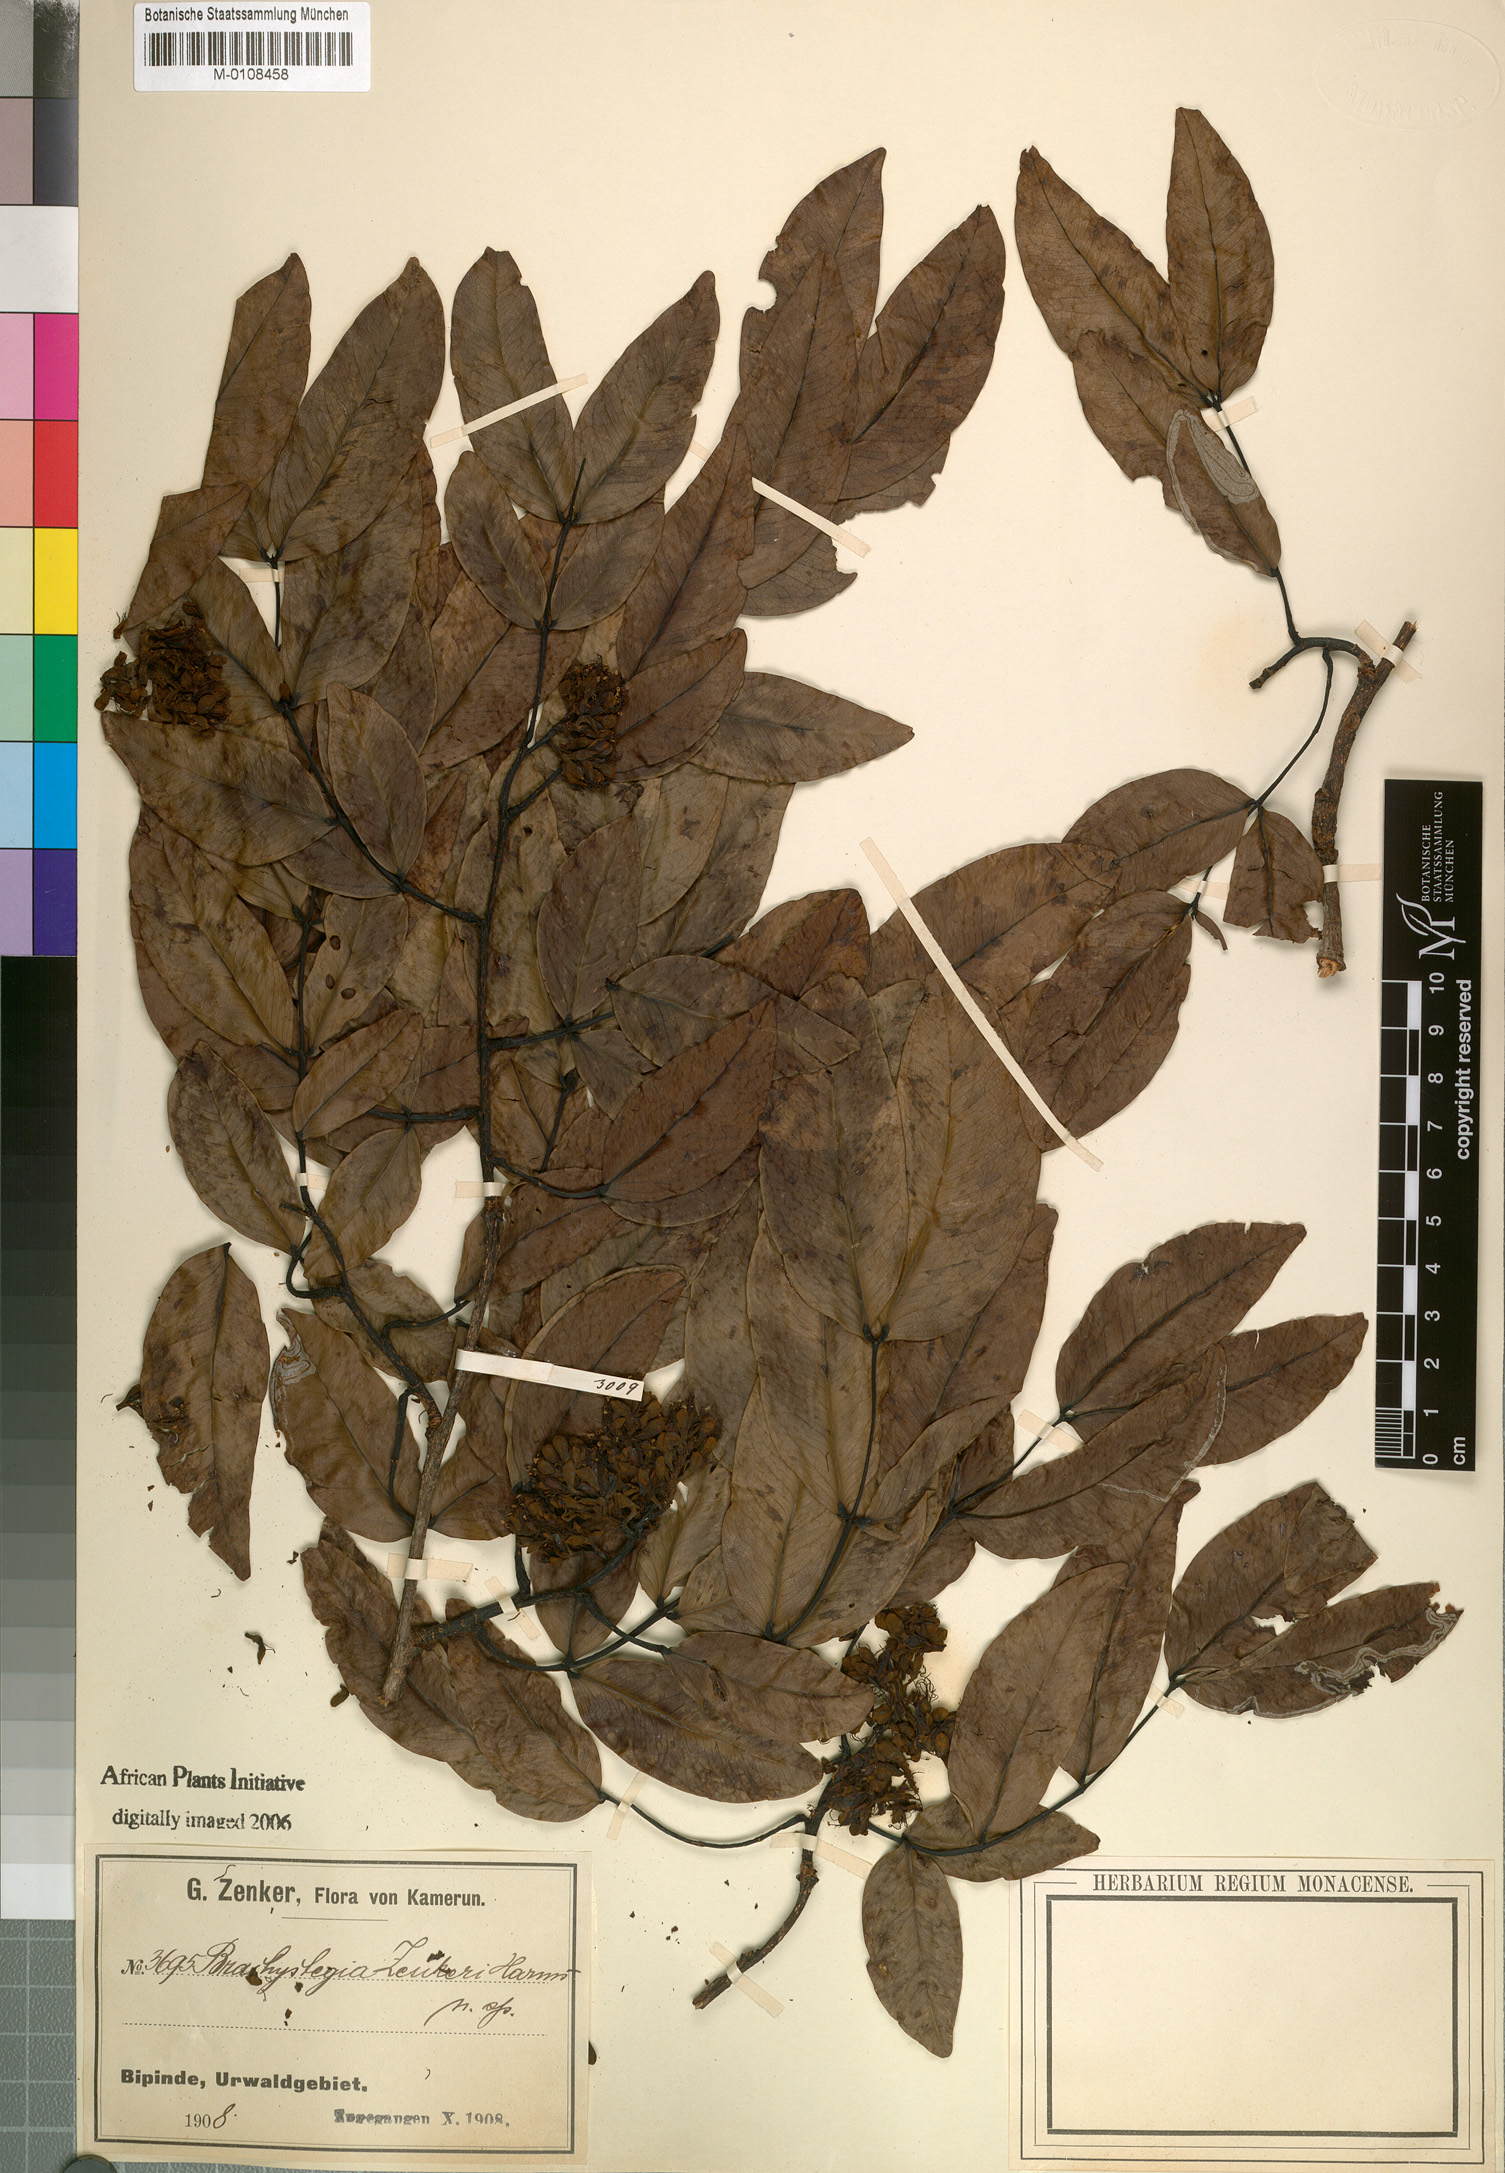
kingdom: Plantae
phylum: Tracheophyta
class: Magnoliopsida
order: Fabales
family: Fabaceae
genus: Brachystegia
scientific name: Brachystegia laurentii
